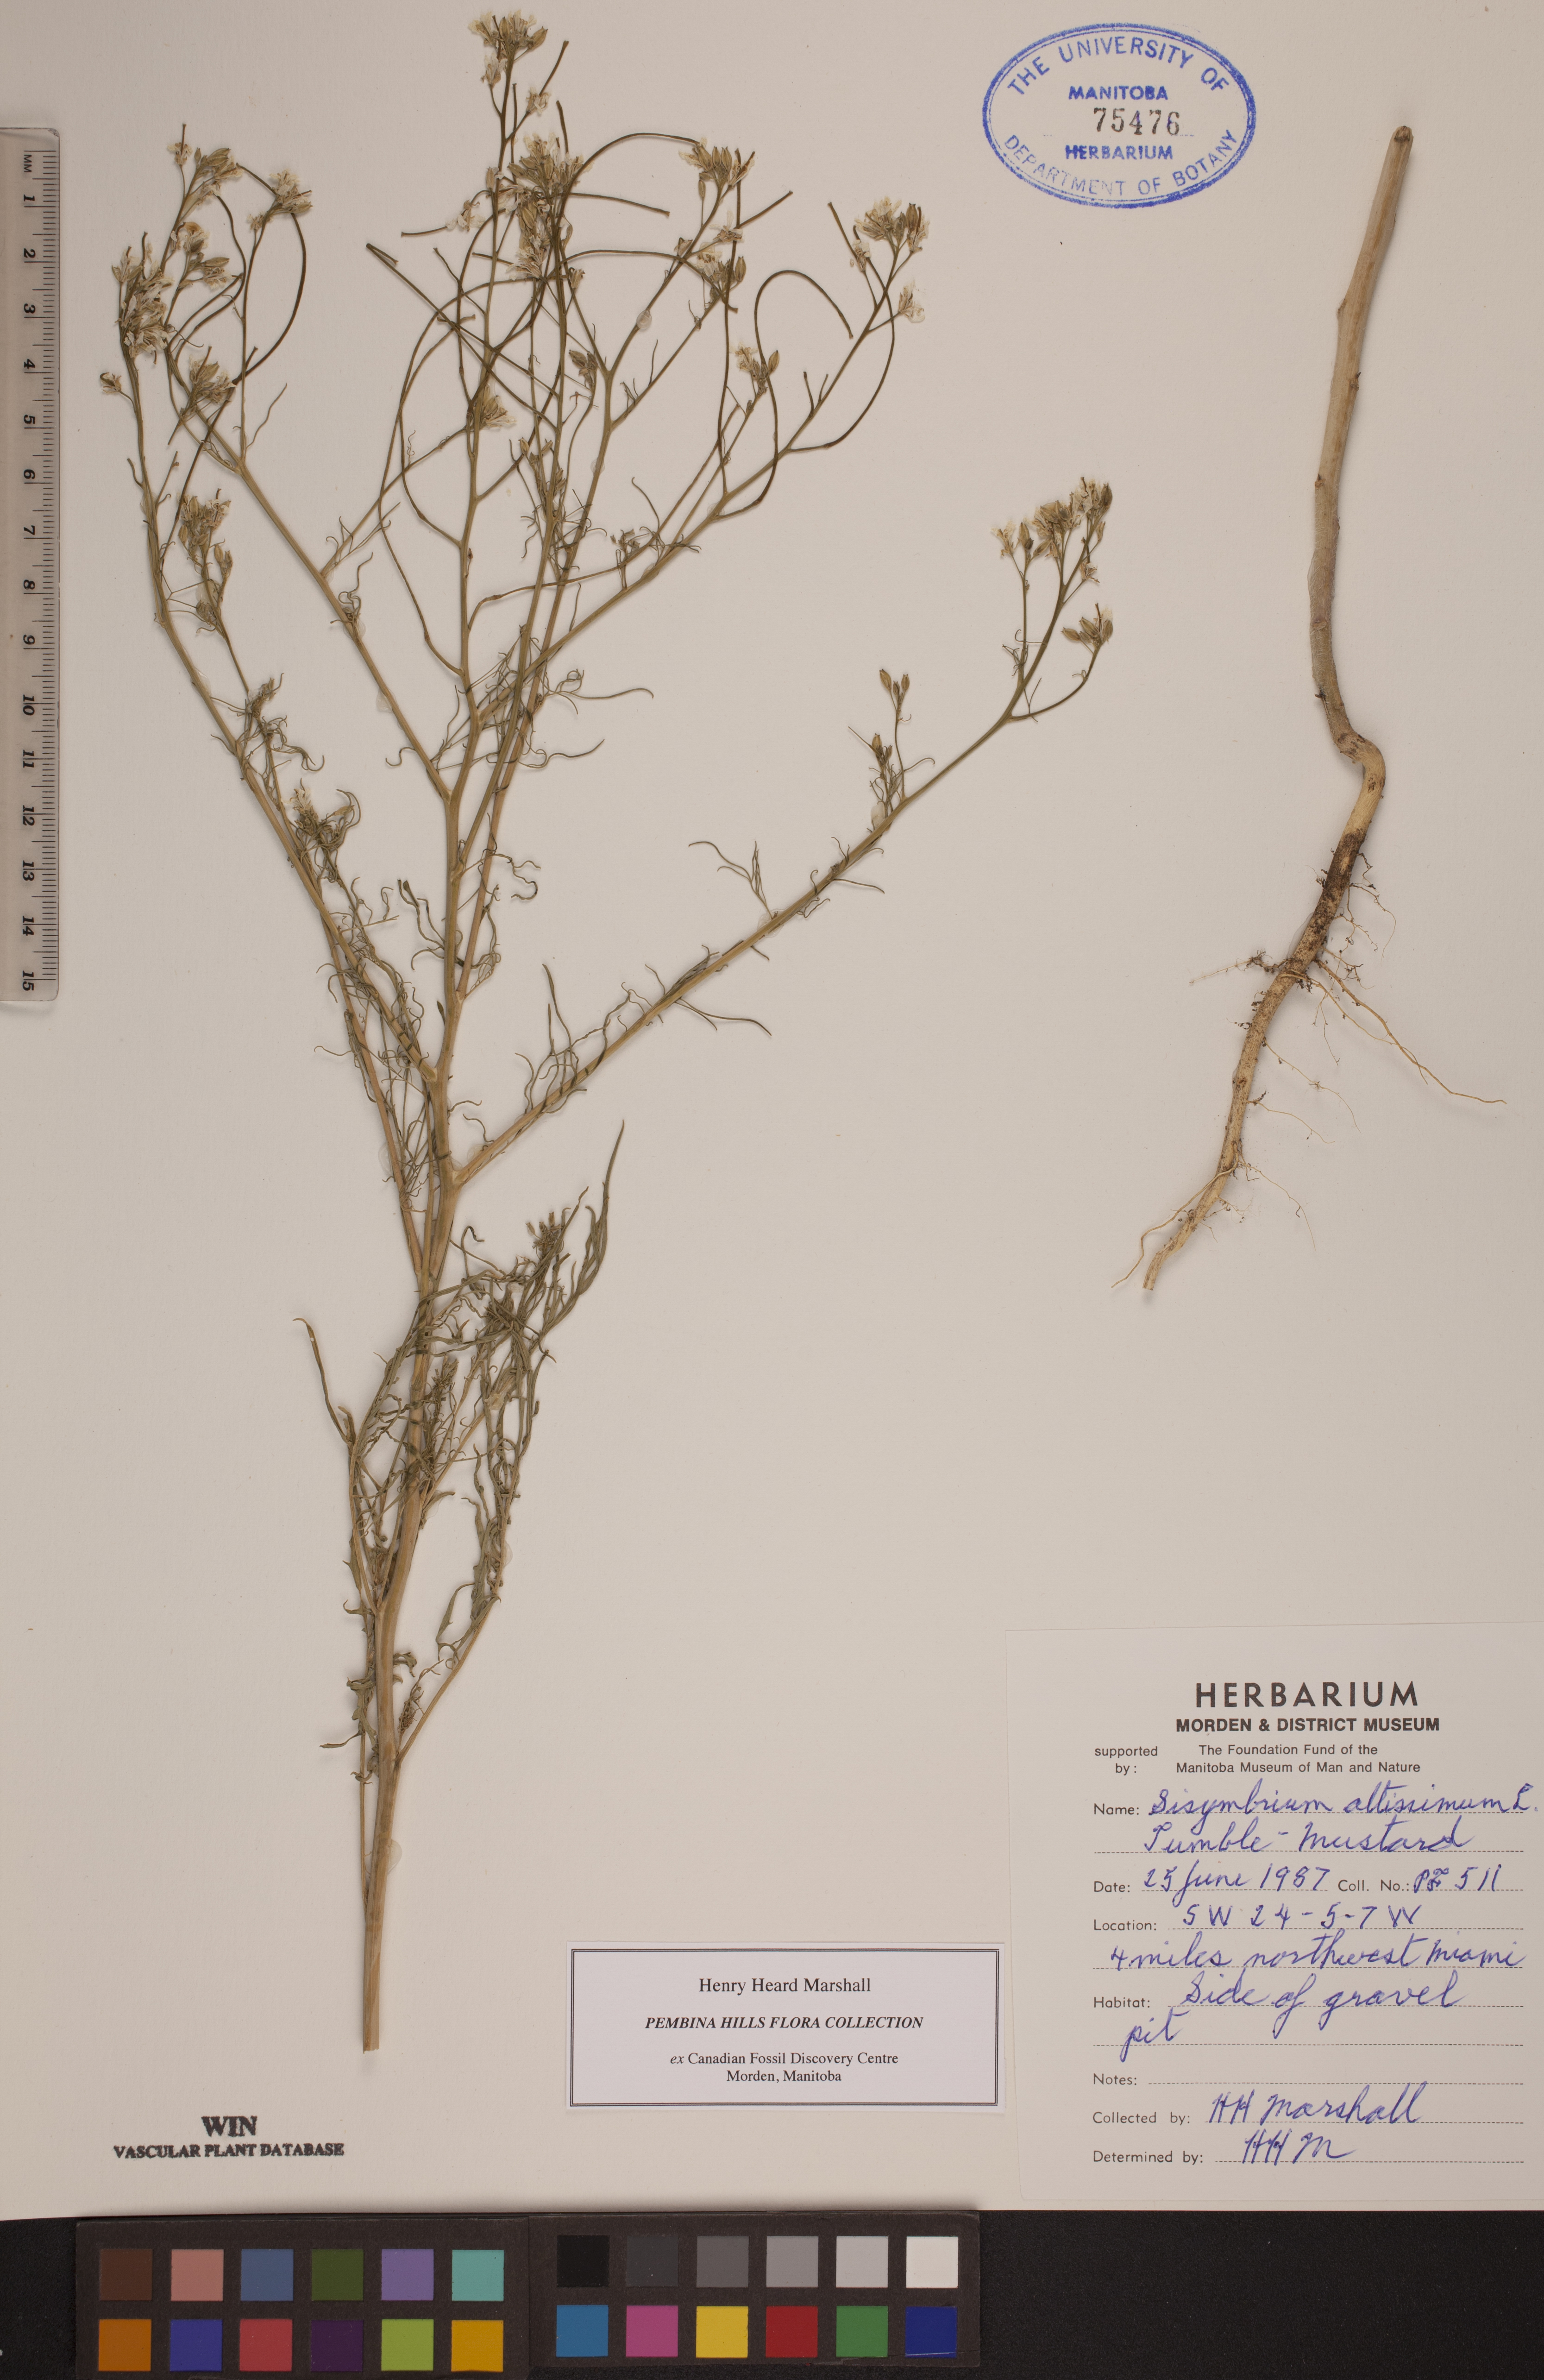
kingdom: Plantae
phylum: Tracheophyta
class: Magnoliopsida
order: Brassicales
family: Brassicaceae
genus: Sisymbrium
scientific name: Sisymbrium altissimum
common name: Tall rocket
